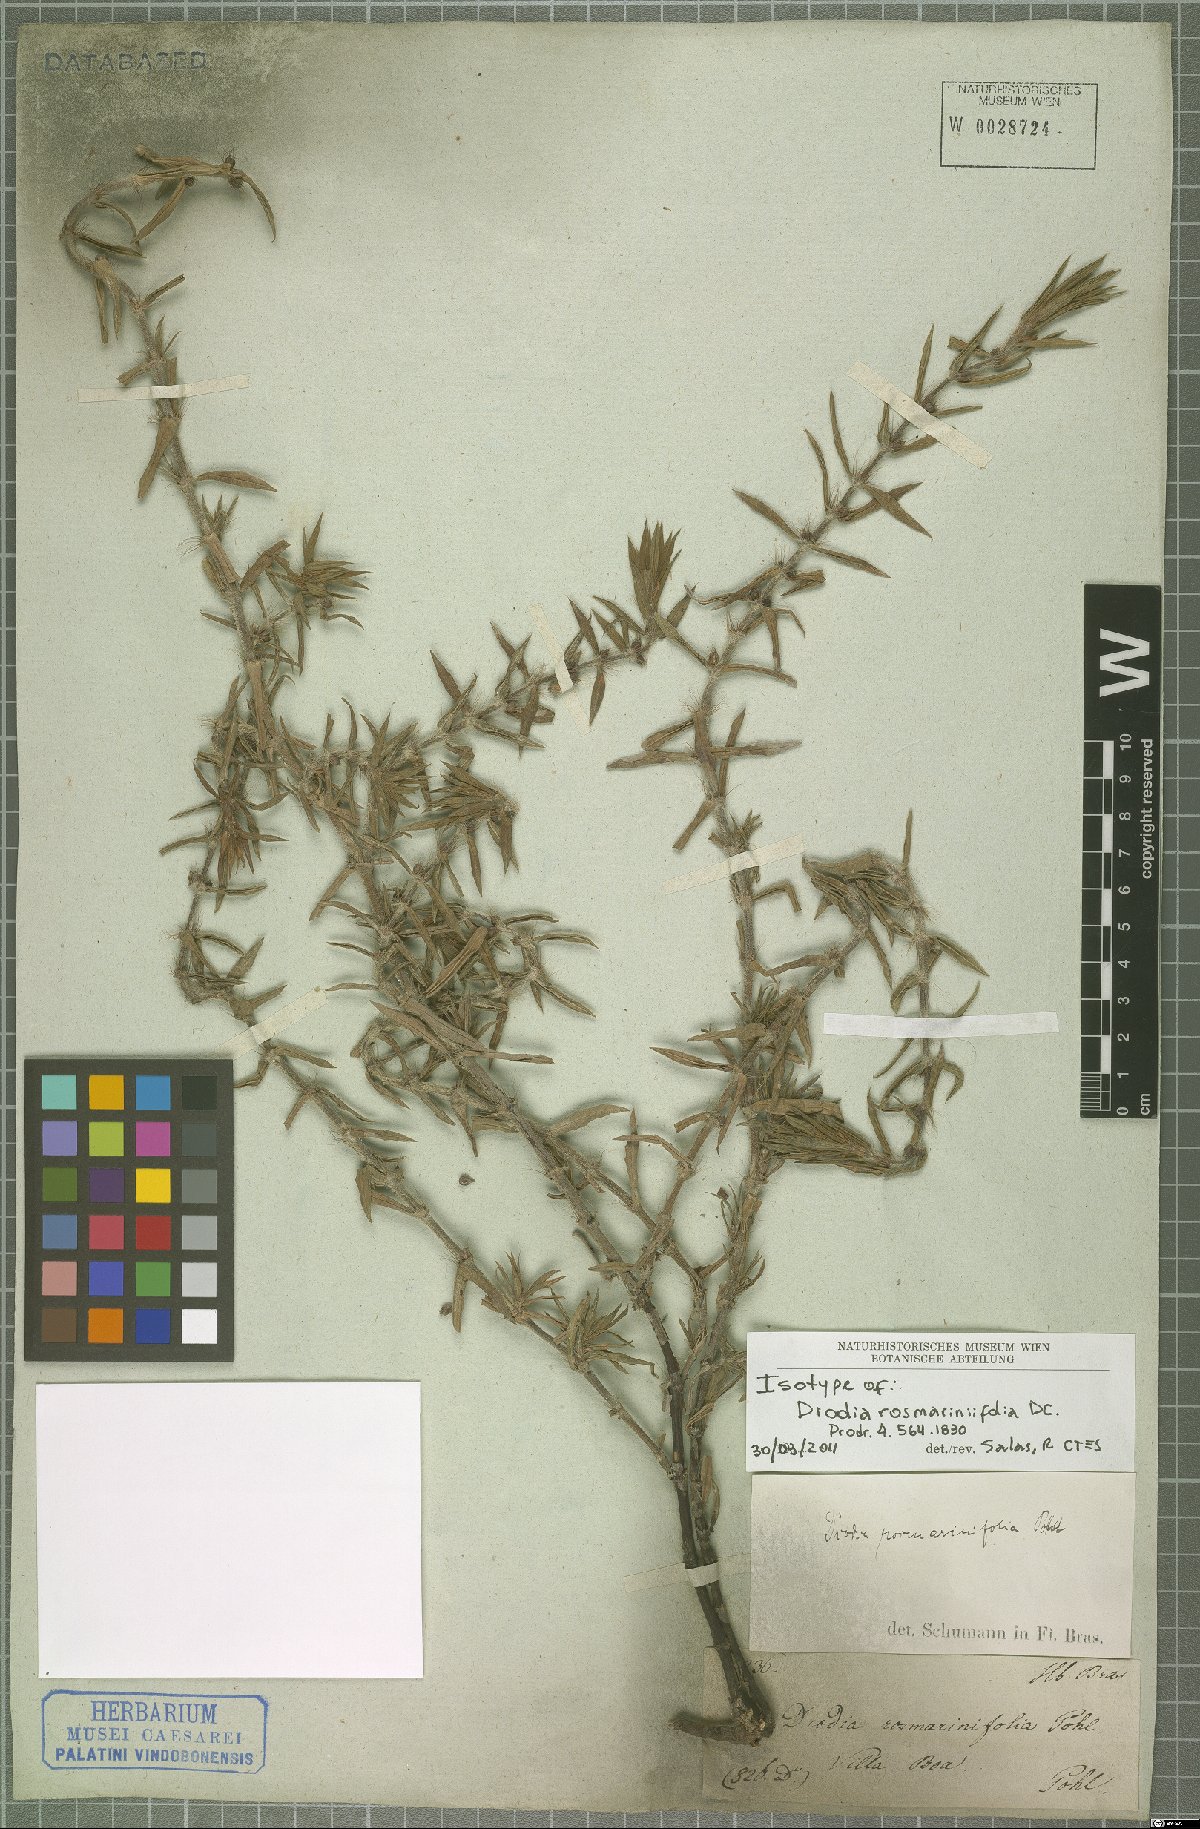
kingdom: Plantae
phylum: Tracheophyta
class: Magnoliopsida
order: Gentianales
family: Rubiaceae
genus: Hexasepalum
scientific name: Hexasepalum rosmarinifolium
